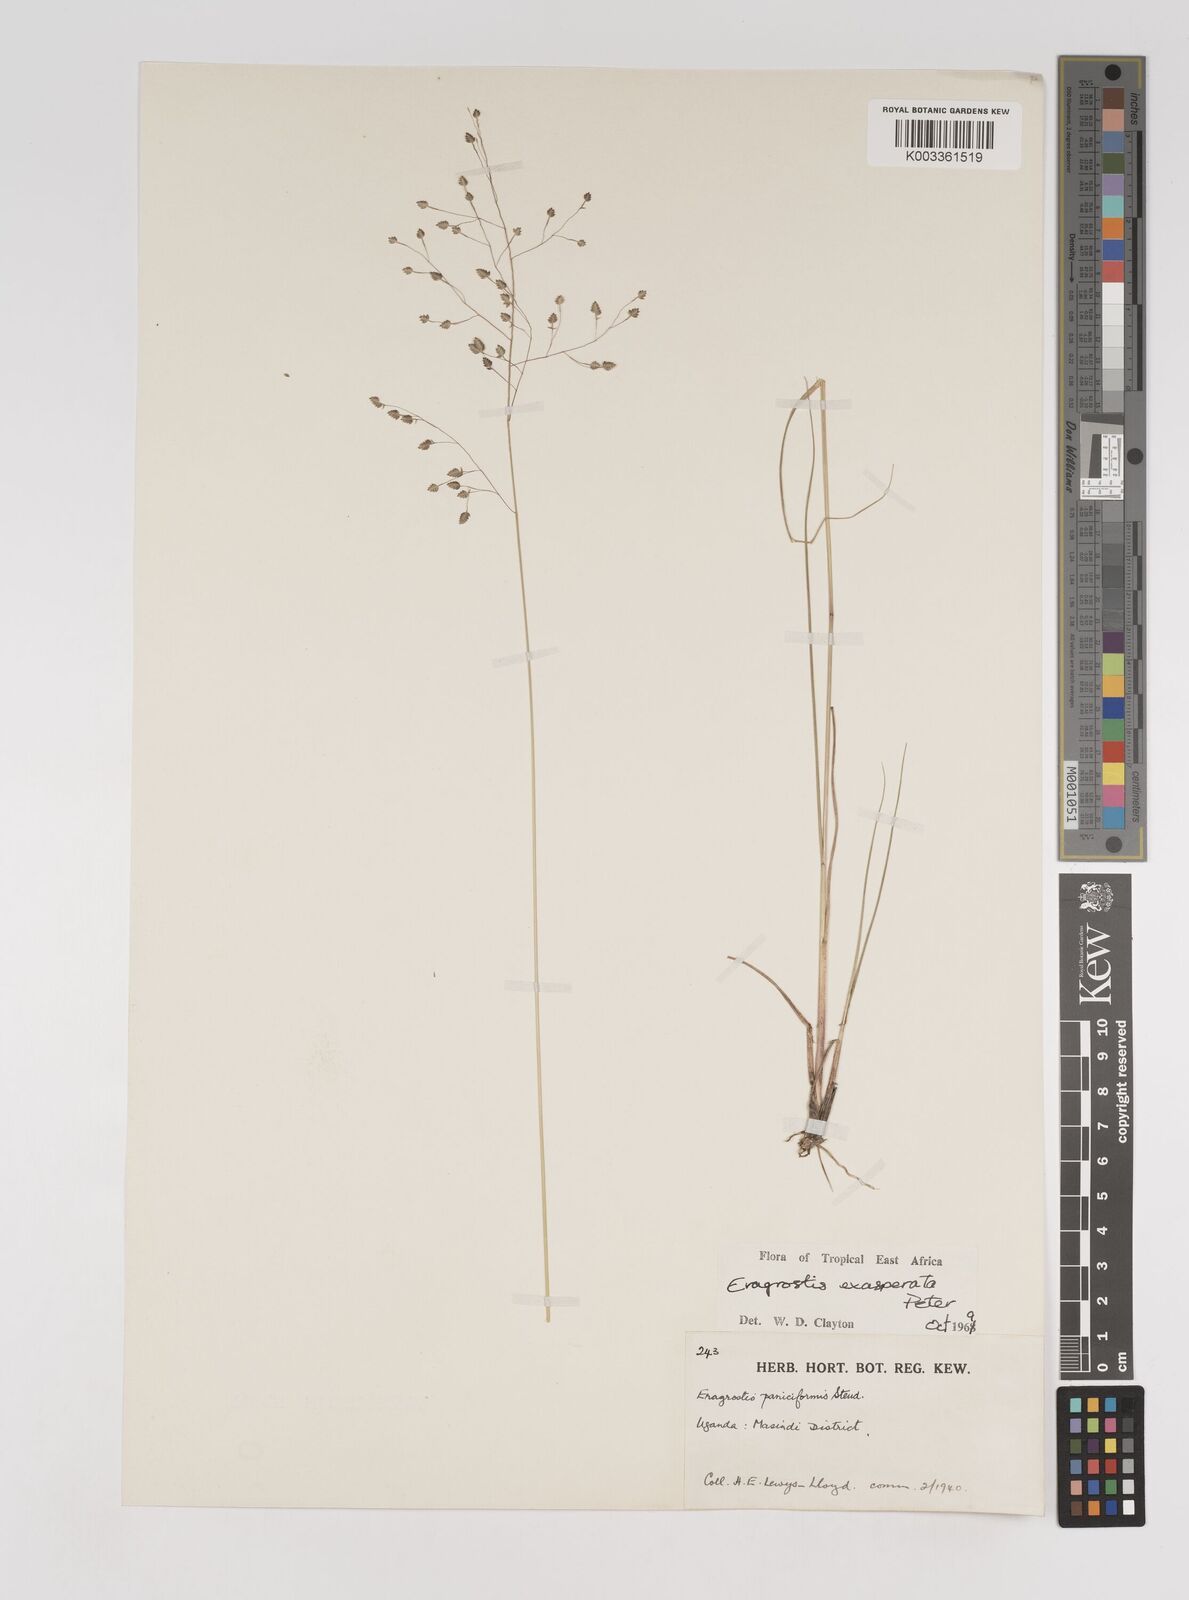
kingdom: Plantae
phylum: Tracheophyta
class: Liliopsida
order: Poales
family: Poaceae
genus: Eragrostis
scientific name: Eragrostis exasperata
